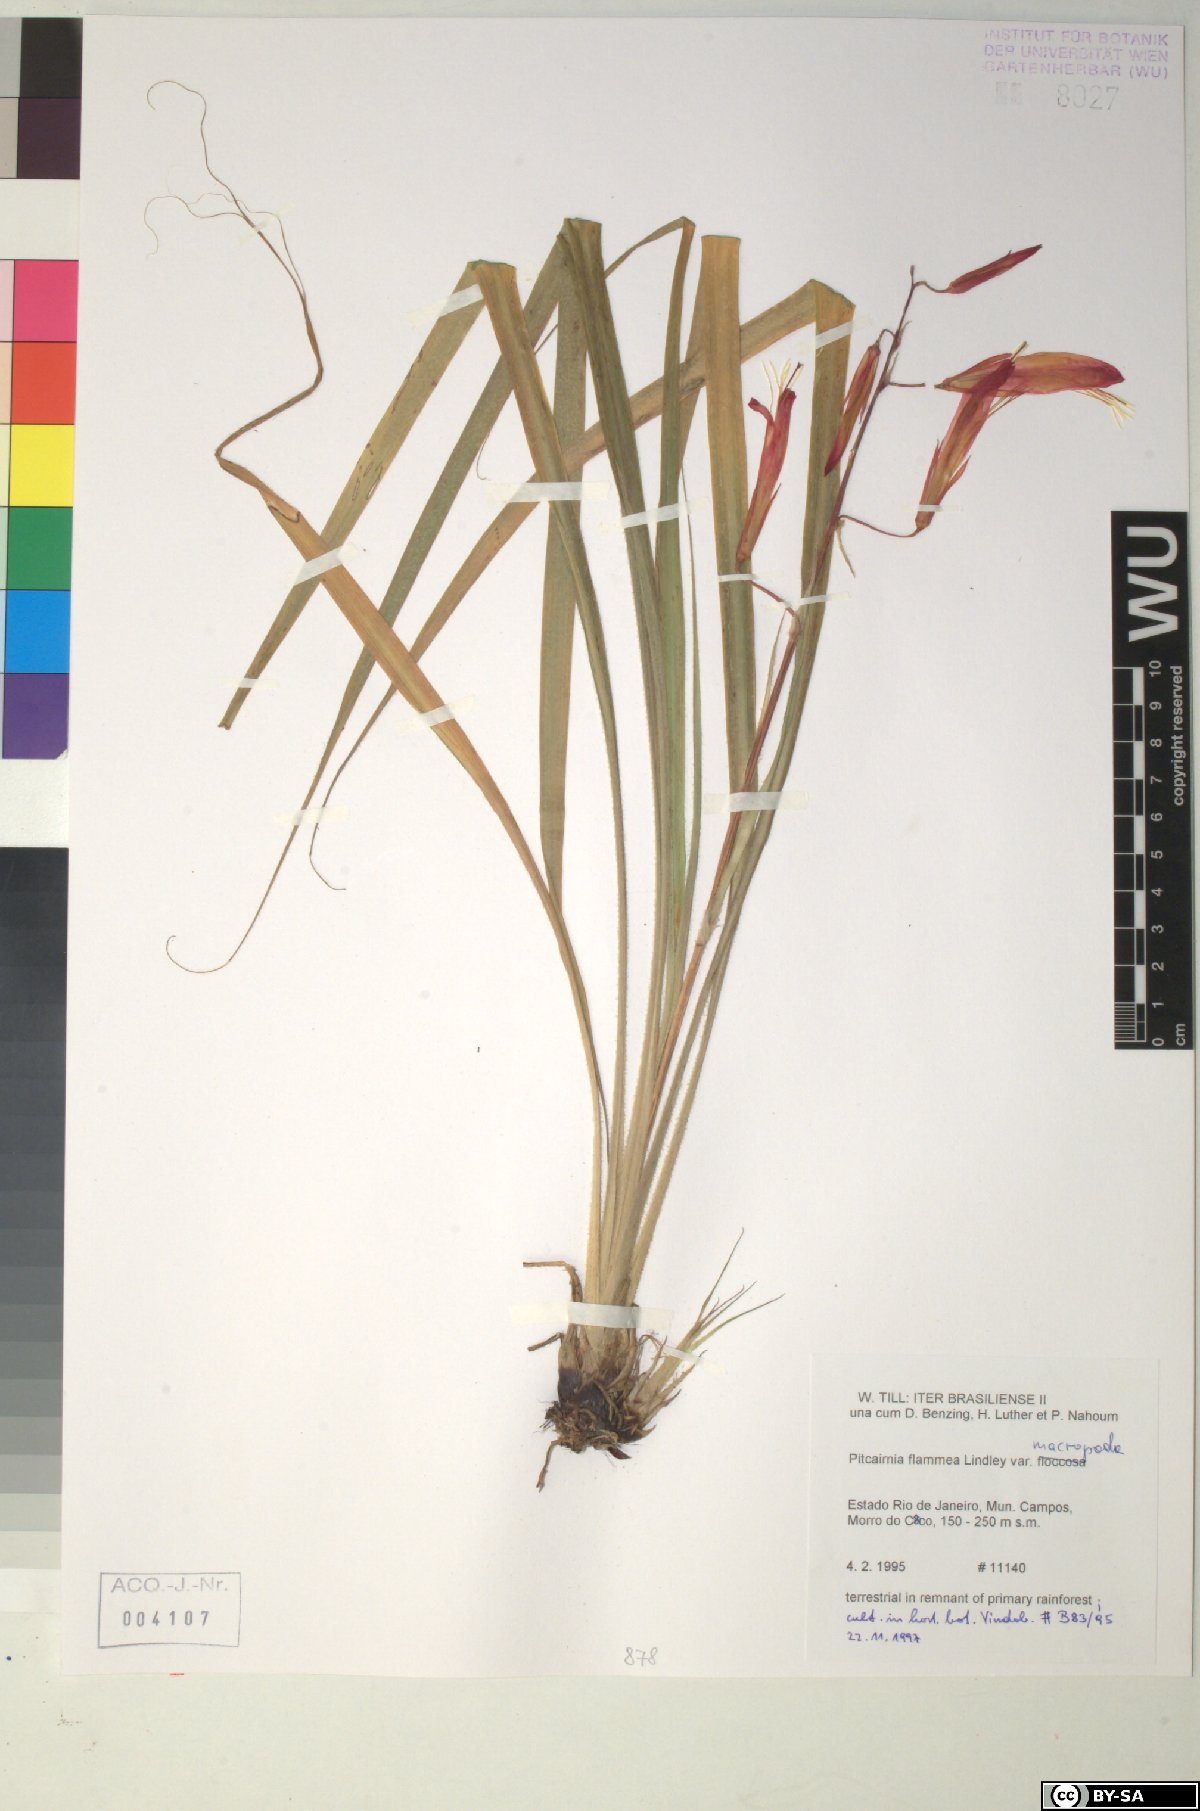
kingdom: Plantae
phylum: Tracheophyta
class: Liliopsida
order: Poales
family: Bromeliaceae
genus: Pitcairnia
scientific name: Pitcairnia flammea
